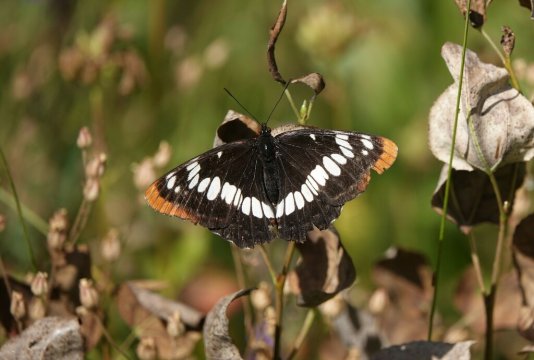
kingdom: Animalia
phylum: Arthropoda
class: Insecta
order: Lepidoptera
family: Nymphalidae
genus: Limenitis
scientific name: Limenitis lorquini
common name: Lorquin's Admiral
